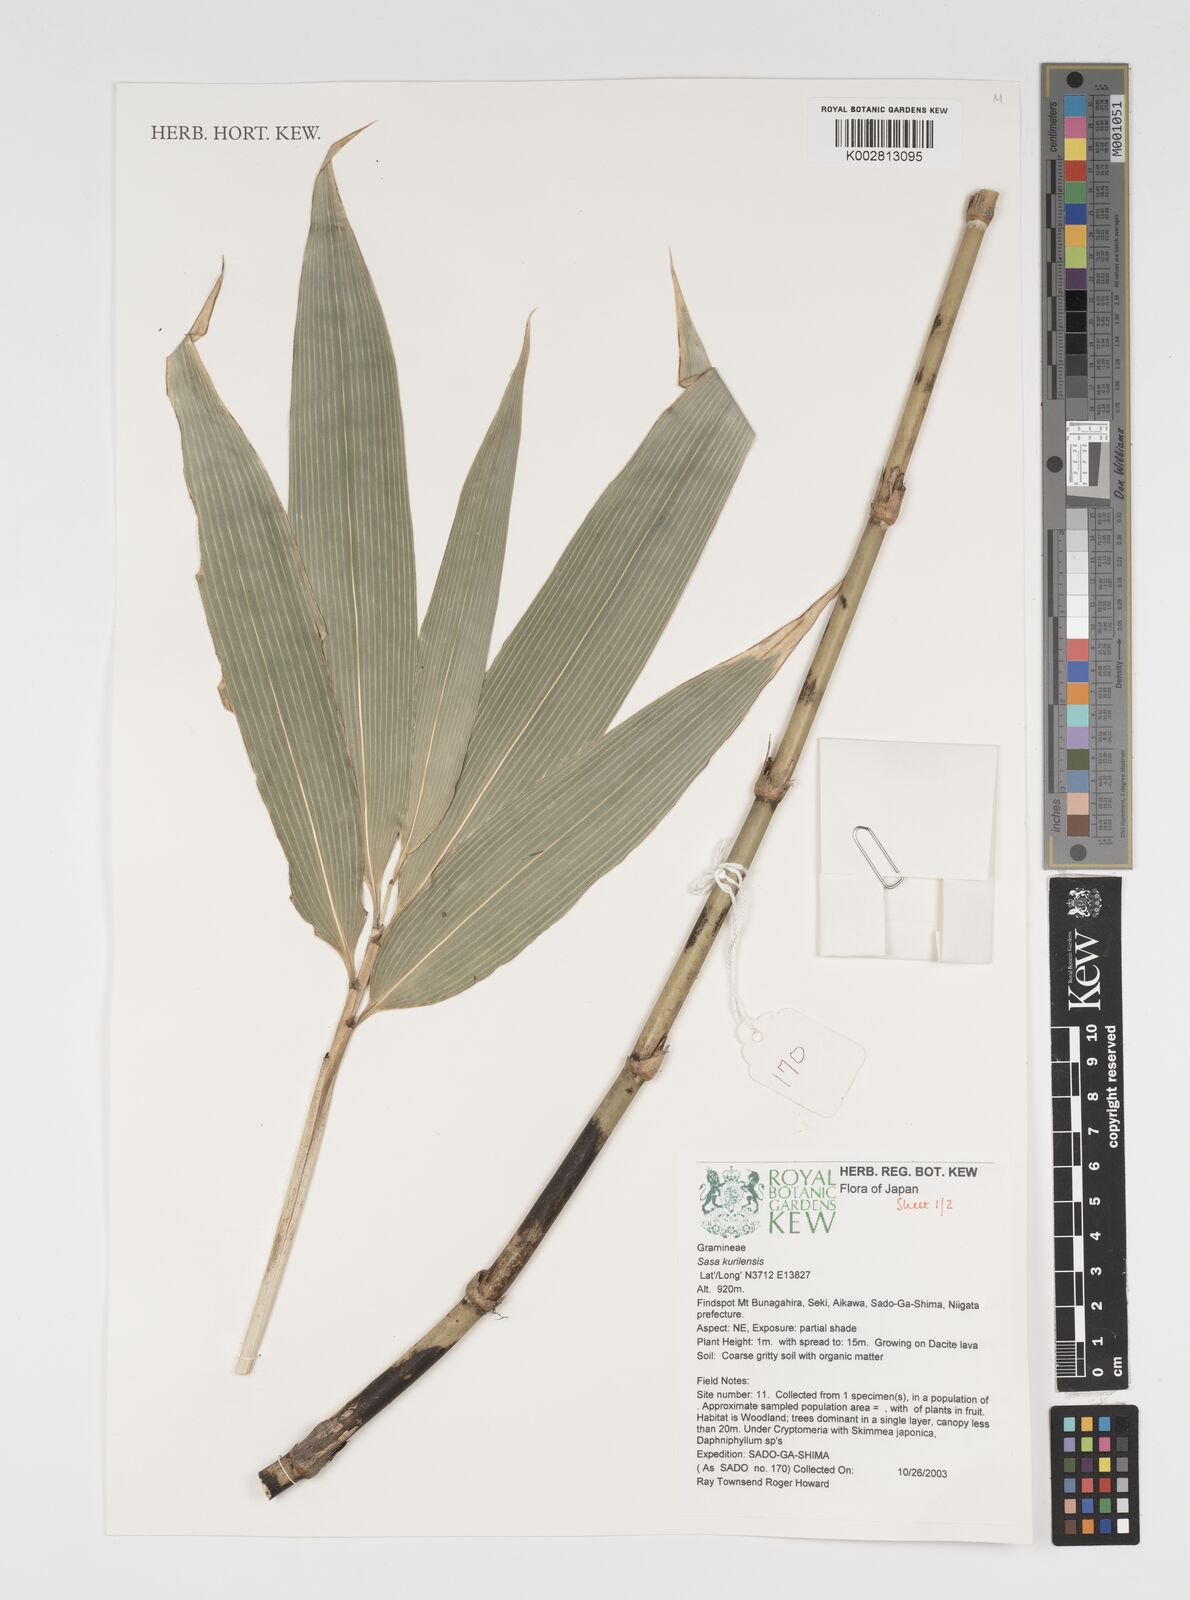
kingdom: Plantae
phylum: Tracheophyta
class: Liliopsida
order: Poales
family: Poaceae
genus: Sasa
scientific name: Sasa kurilensis
